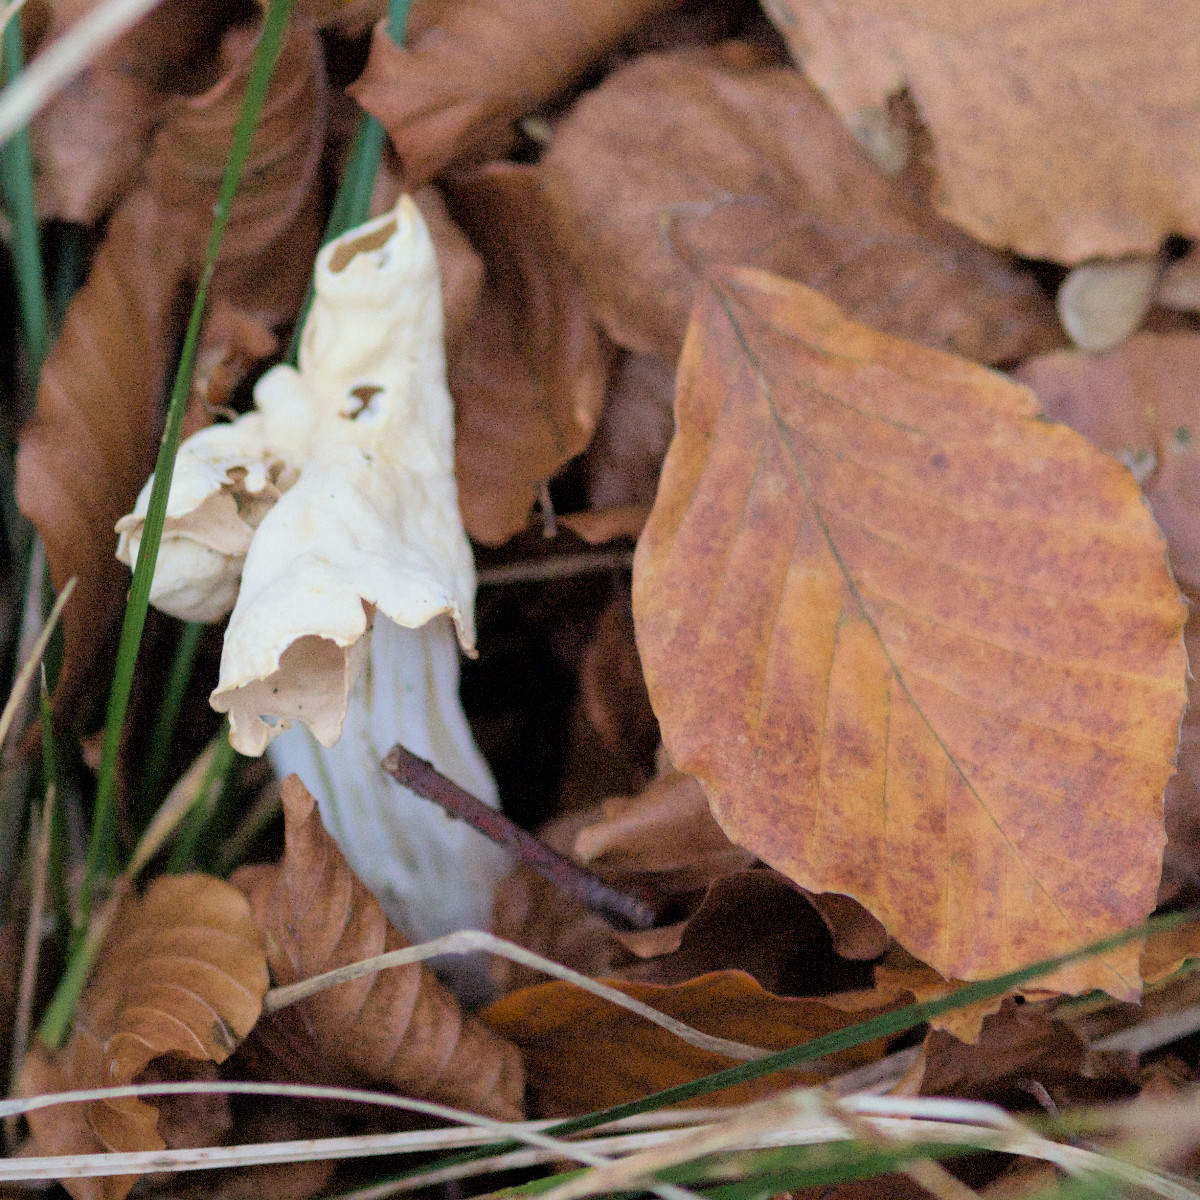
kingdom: Fungi
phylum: Ascomycota
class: Pezizomycetes
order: Pezizales
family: Helvellaceae
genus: Helvella
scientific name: Helvella crispa
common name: kruset foldhat
